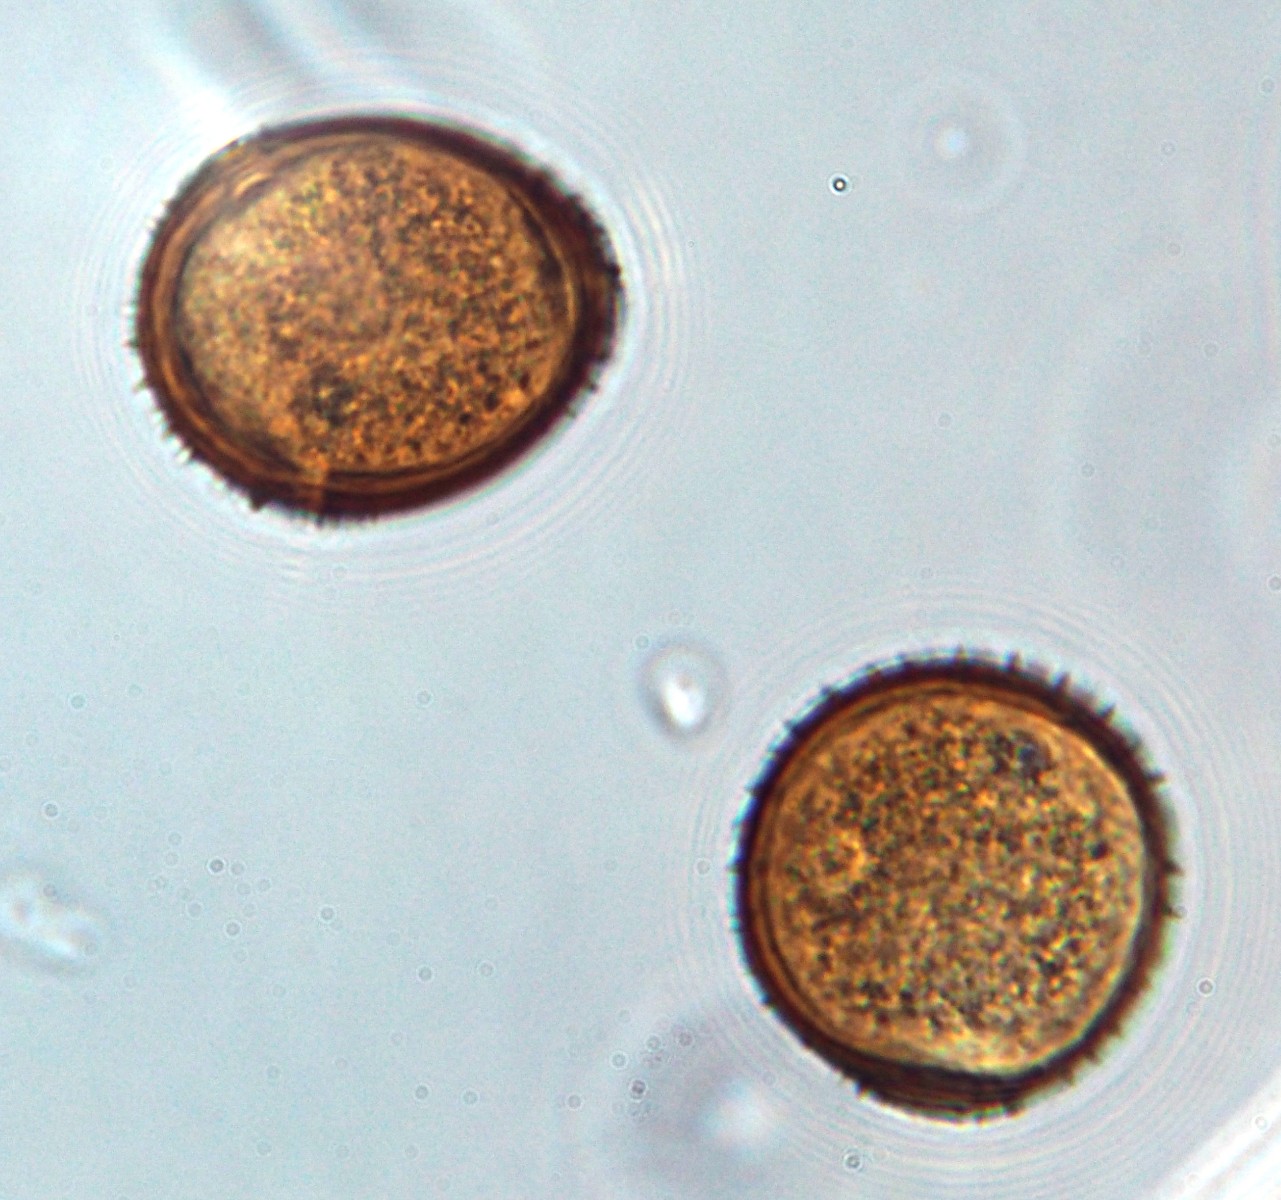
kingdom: Fungi
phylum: Basidiomycota
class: Pucciniomycetes
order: Pucciniales
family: Pucciniaceae
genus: Puccinia
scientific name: Puccinia variabilis
